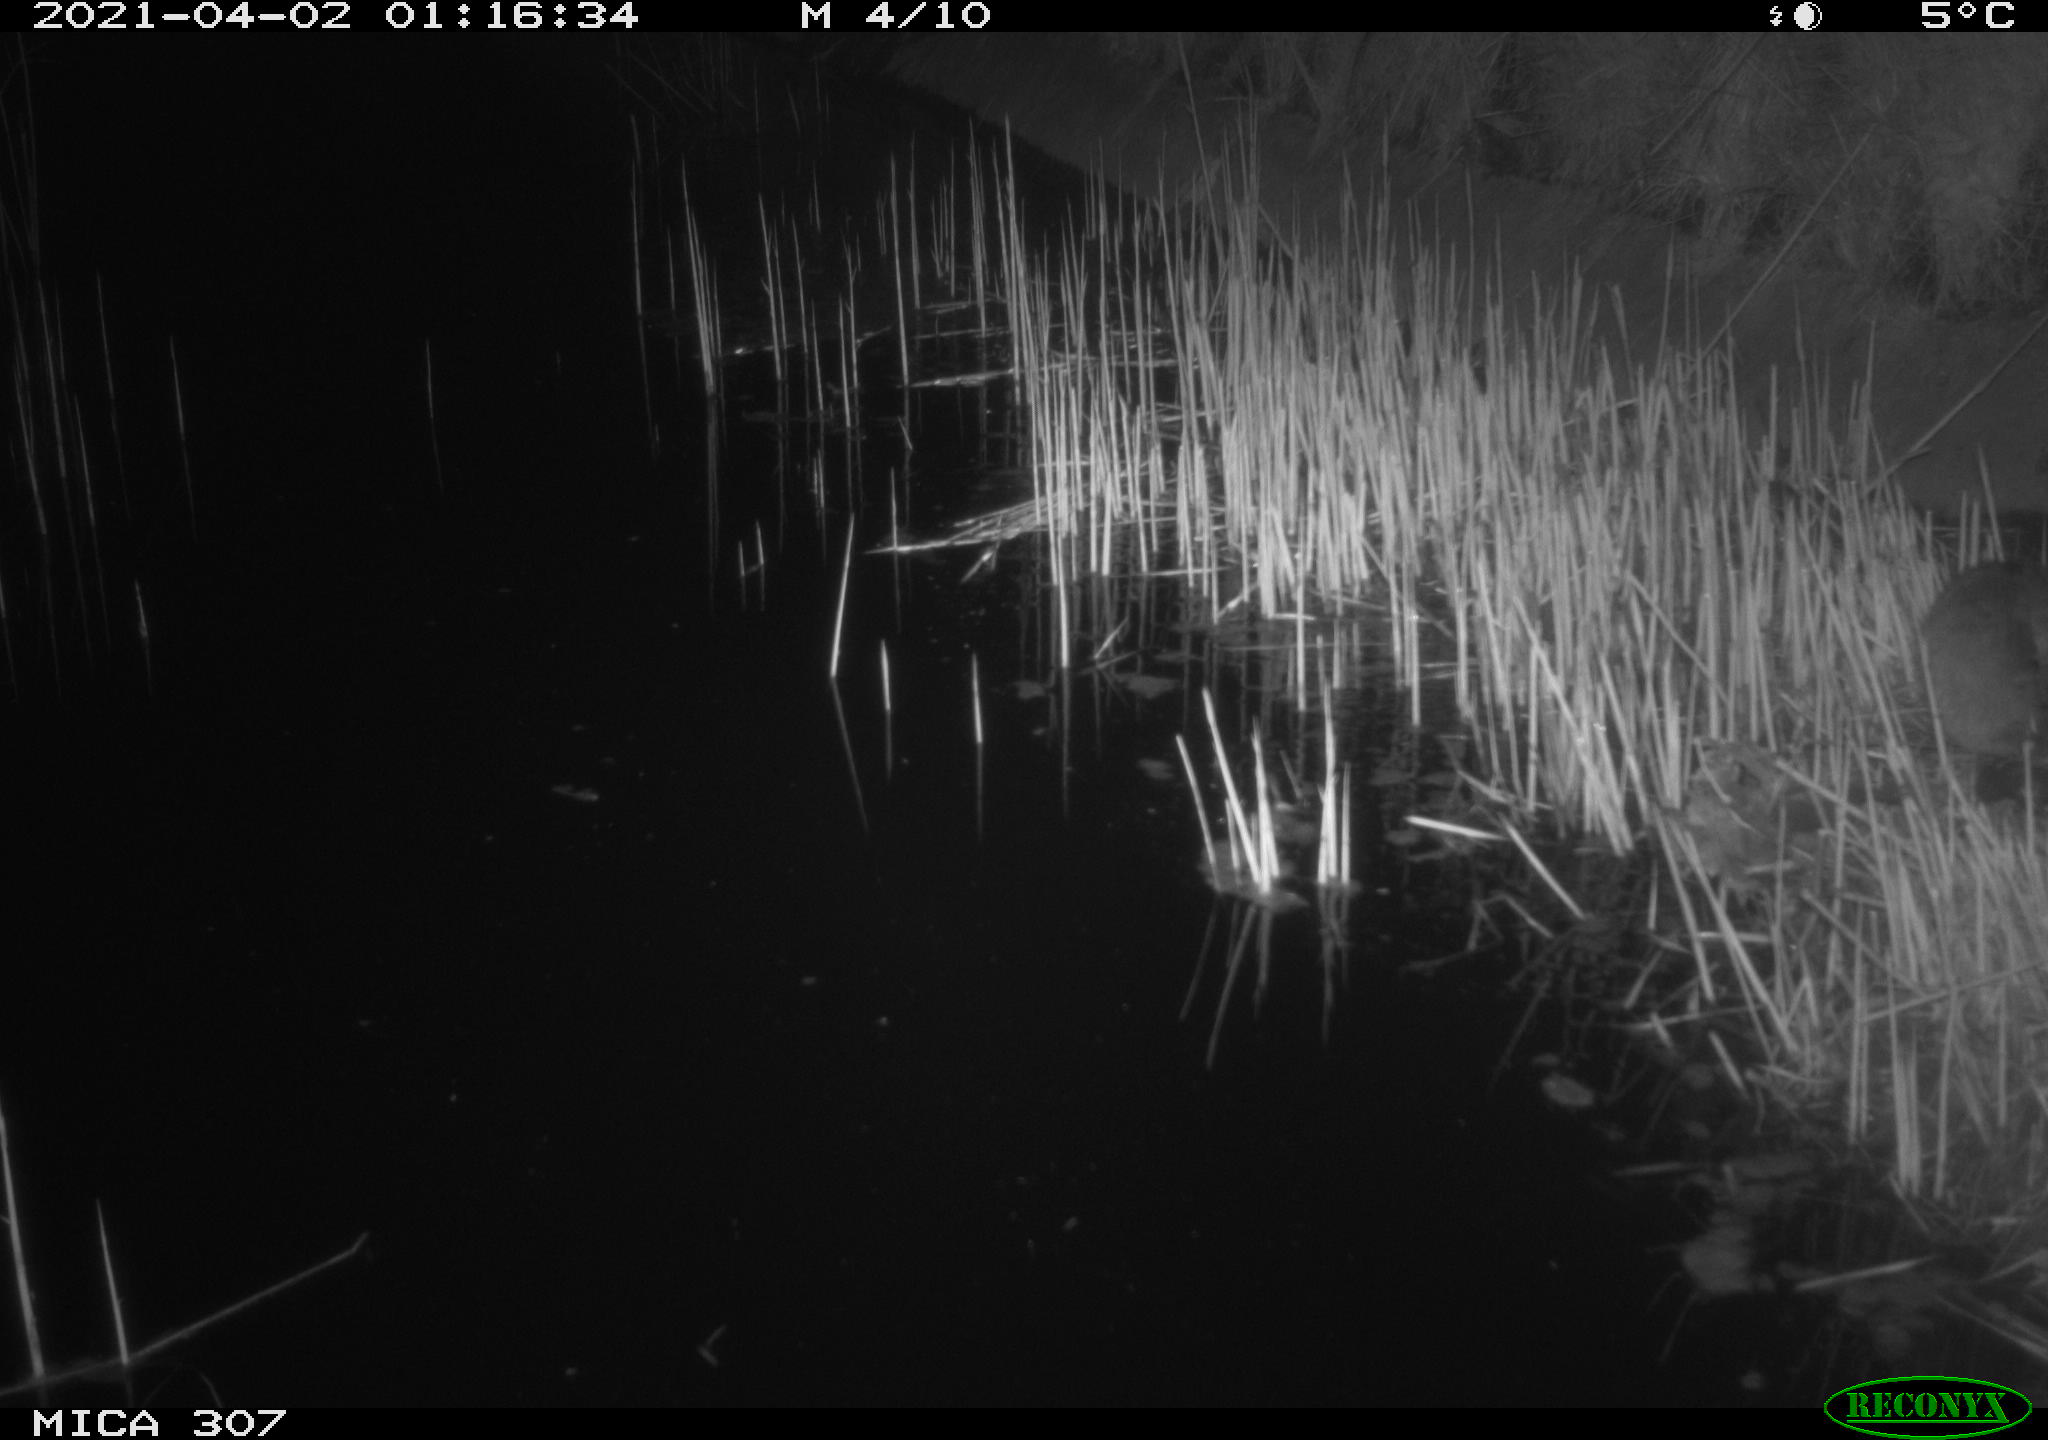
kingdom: Animalia
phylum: Chordata
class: Mammalia
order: Rodentia
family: Cricetidae
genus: Ondatra
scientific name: Ondatra zibethicus
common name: Muskrat
